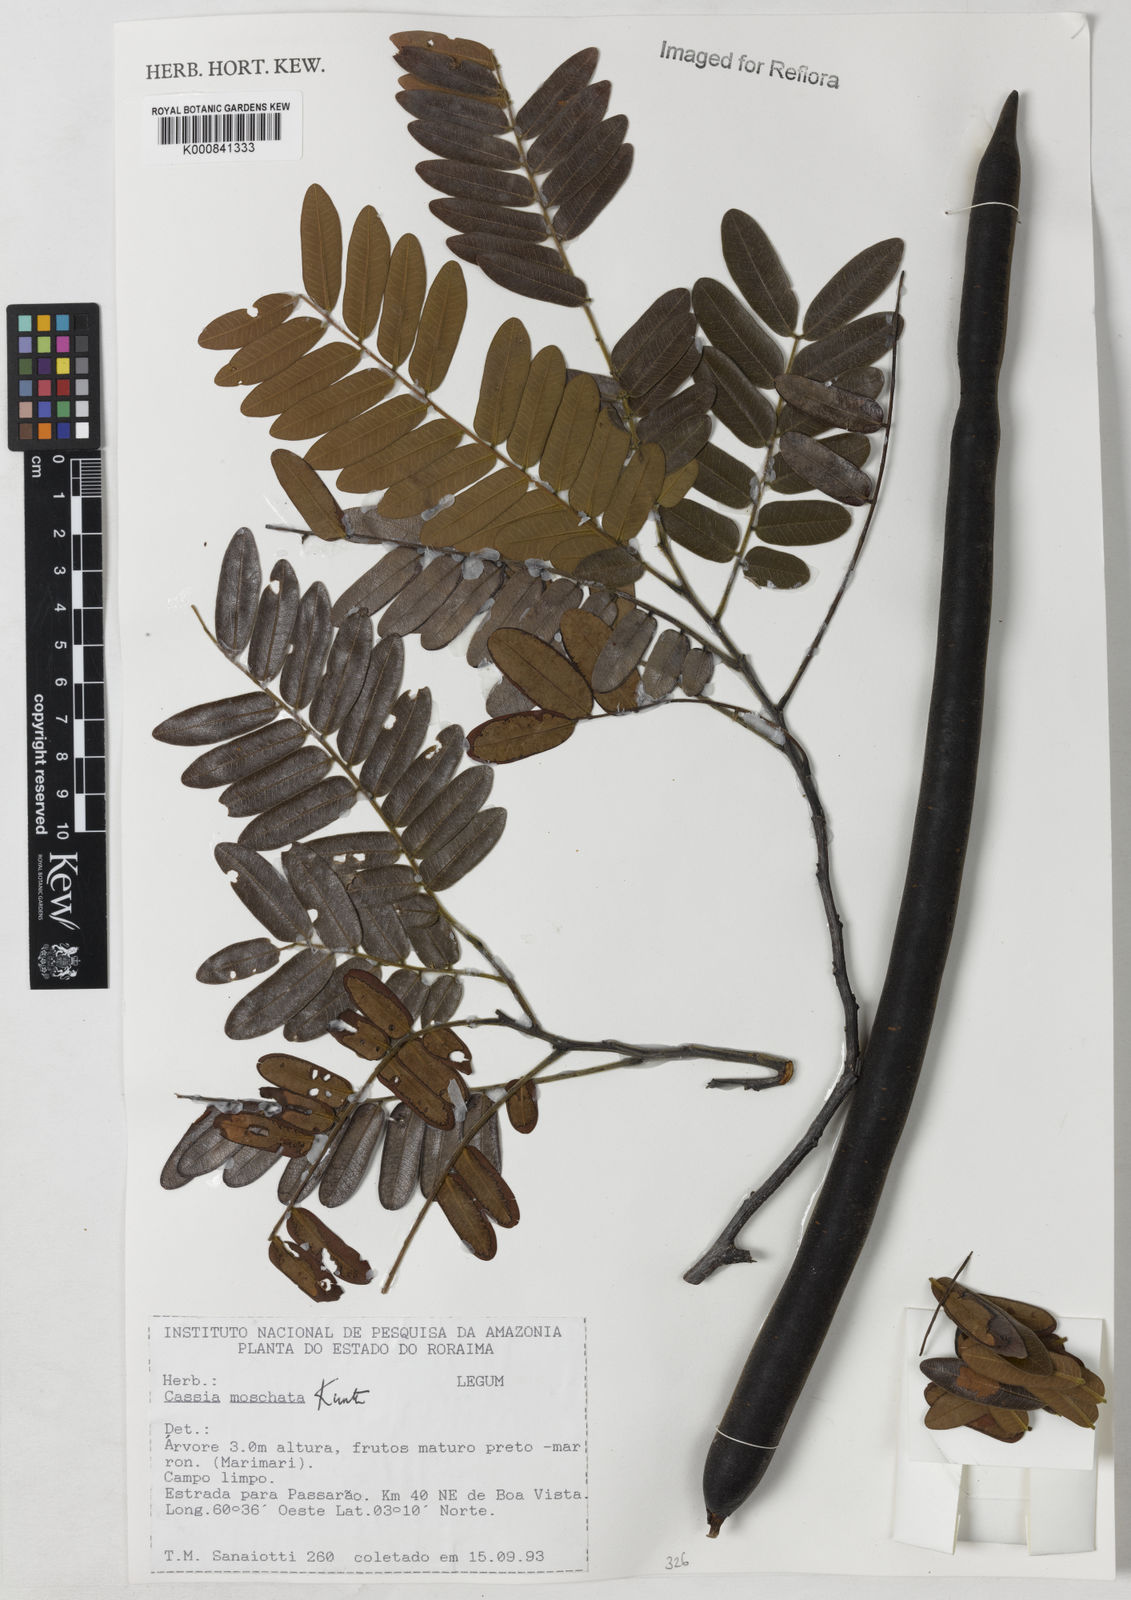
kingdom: Plantae
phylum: Tracheophyta
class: Magnoliopsida
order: Fabales
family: Fabaceae
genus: Cassia
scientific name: Cassia moschata
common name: Bronze shower tree
